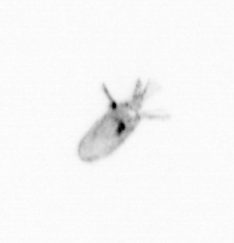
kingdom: Animalia
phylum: Arthropoda
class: Copepoda
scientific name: Copepoda
